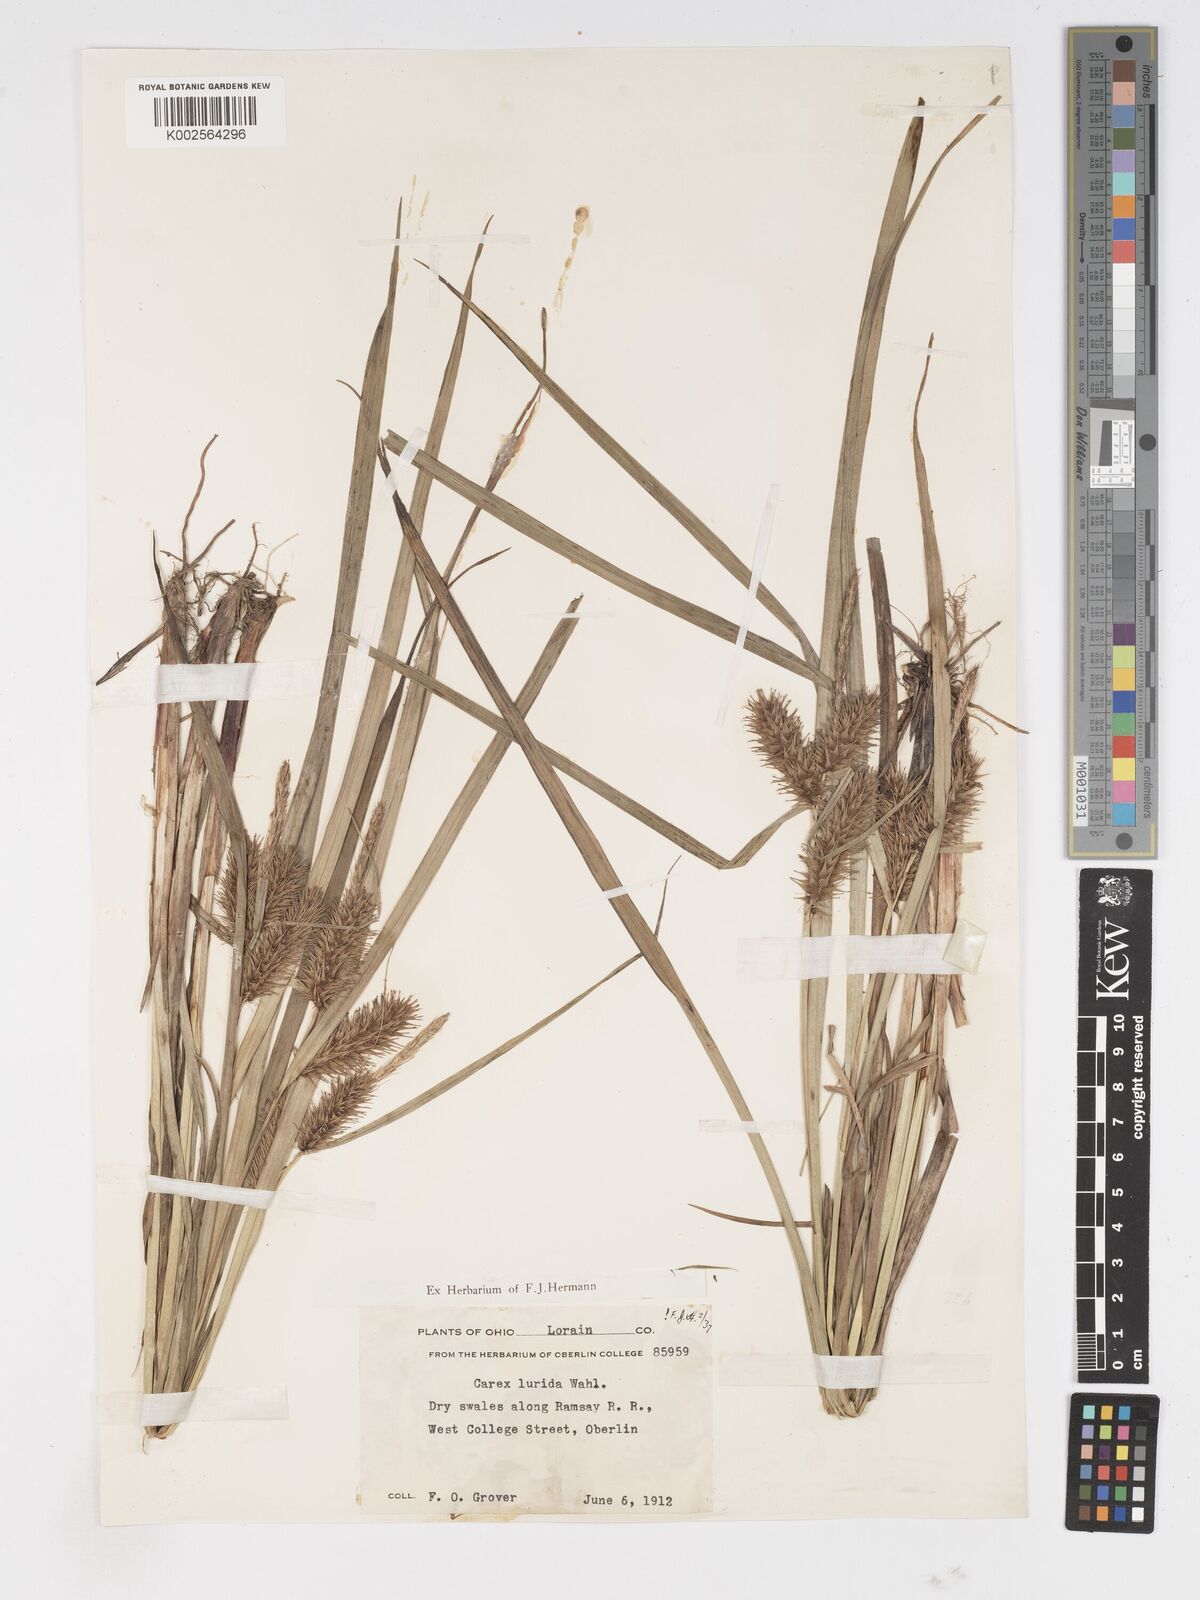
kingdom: Plantae
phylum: Tracheophyta
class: Liliopsida
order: Poales
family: Cyperaceae
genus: Carex
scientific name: Carex lurida
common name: Sallow sedge
